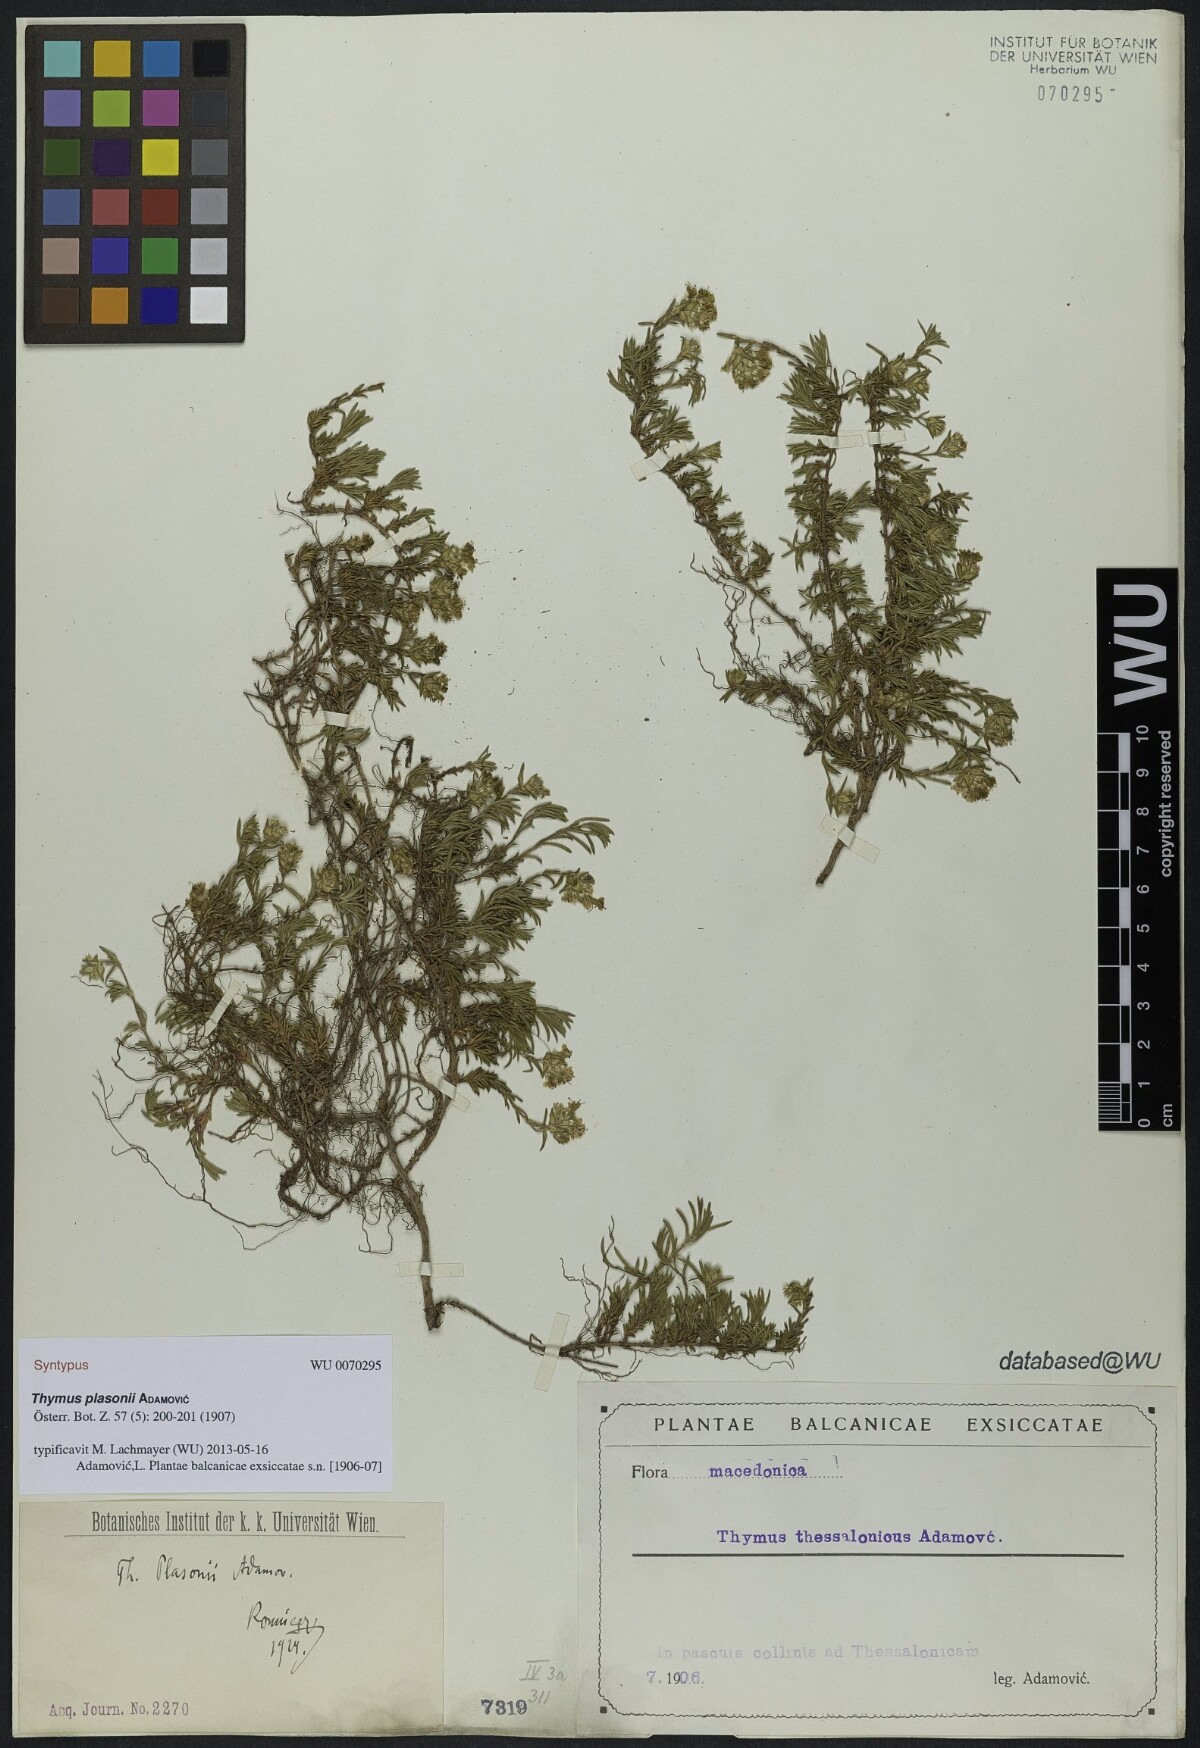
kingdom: Plantae
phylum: Tracheophyta
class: Magnoliopsida
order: Lamiales
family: Lamiaceae
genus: Thymus
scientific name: Thymus plasonii
